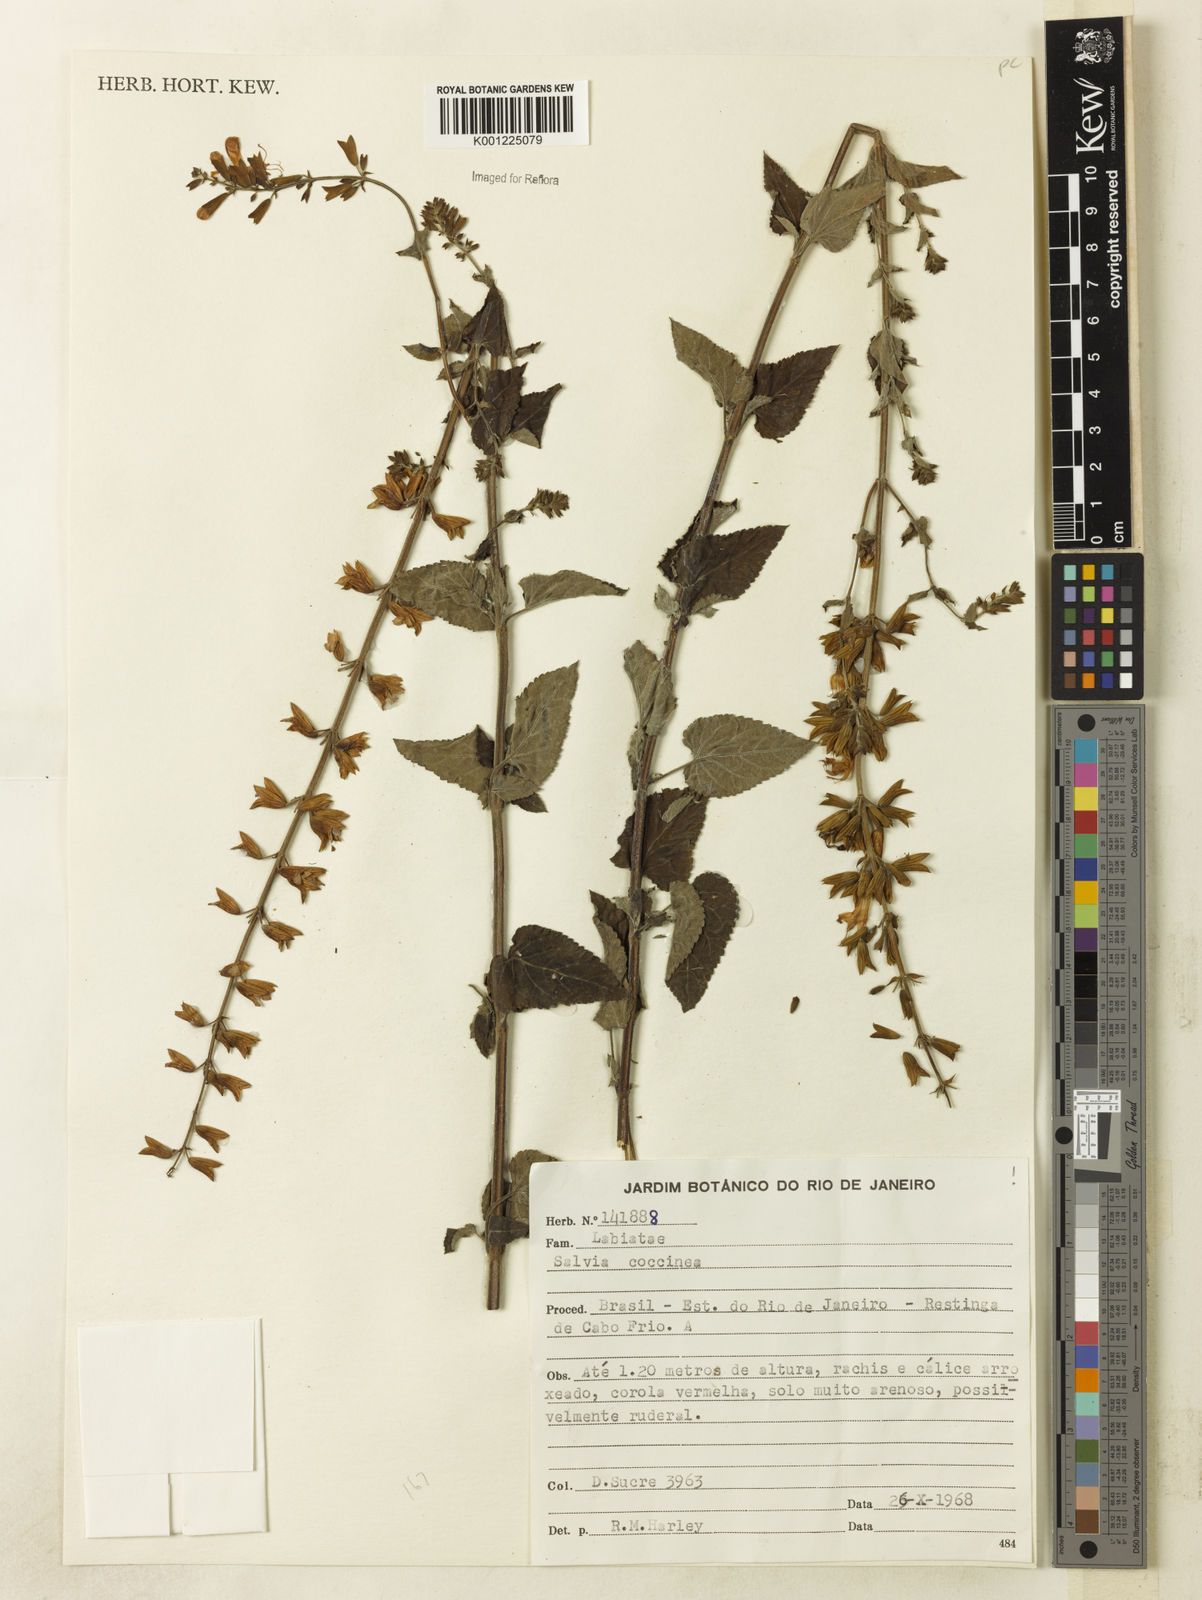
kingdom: Plantae
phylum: Tracheophyta
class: Magnoliopsida
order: Lamiales
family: Lamiaceae
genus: Salvia
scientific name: Salvia coccinea
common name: Blood sage
